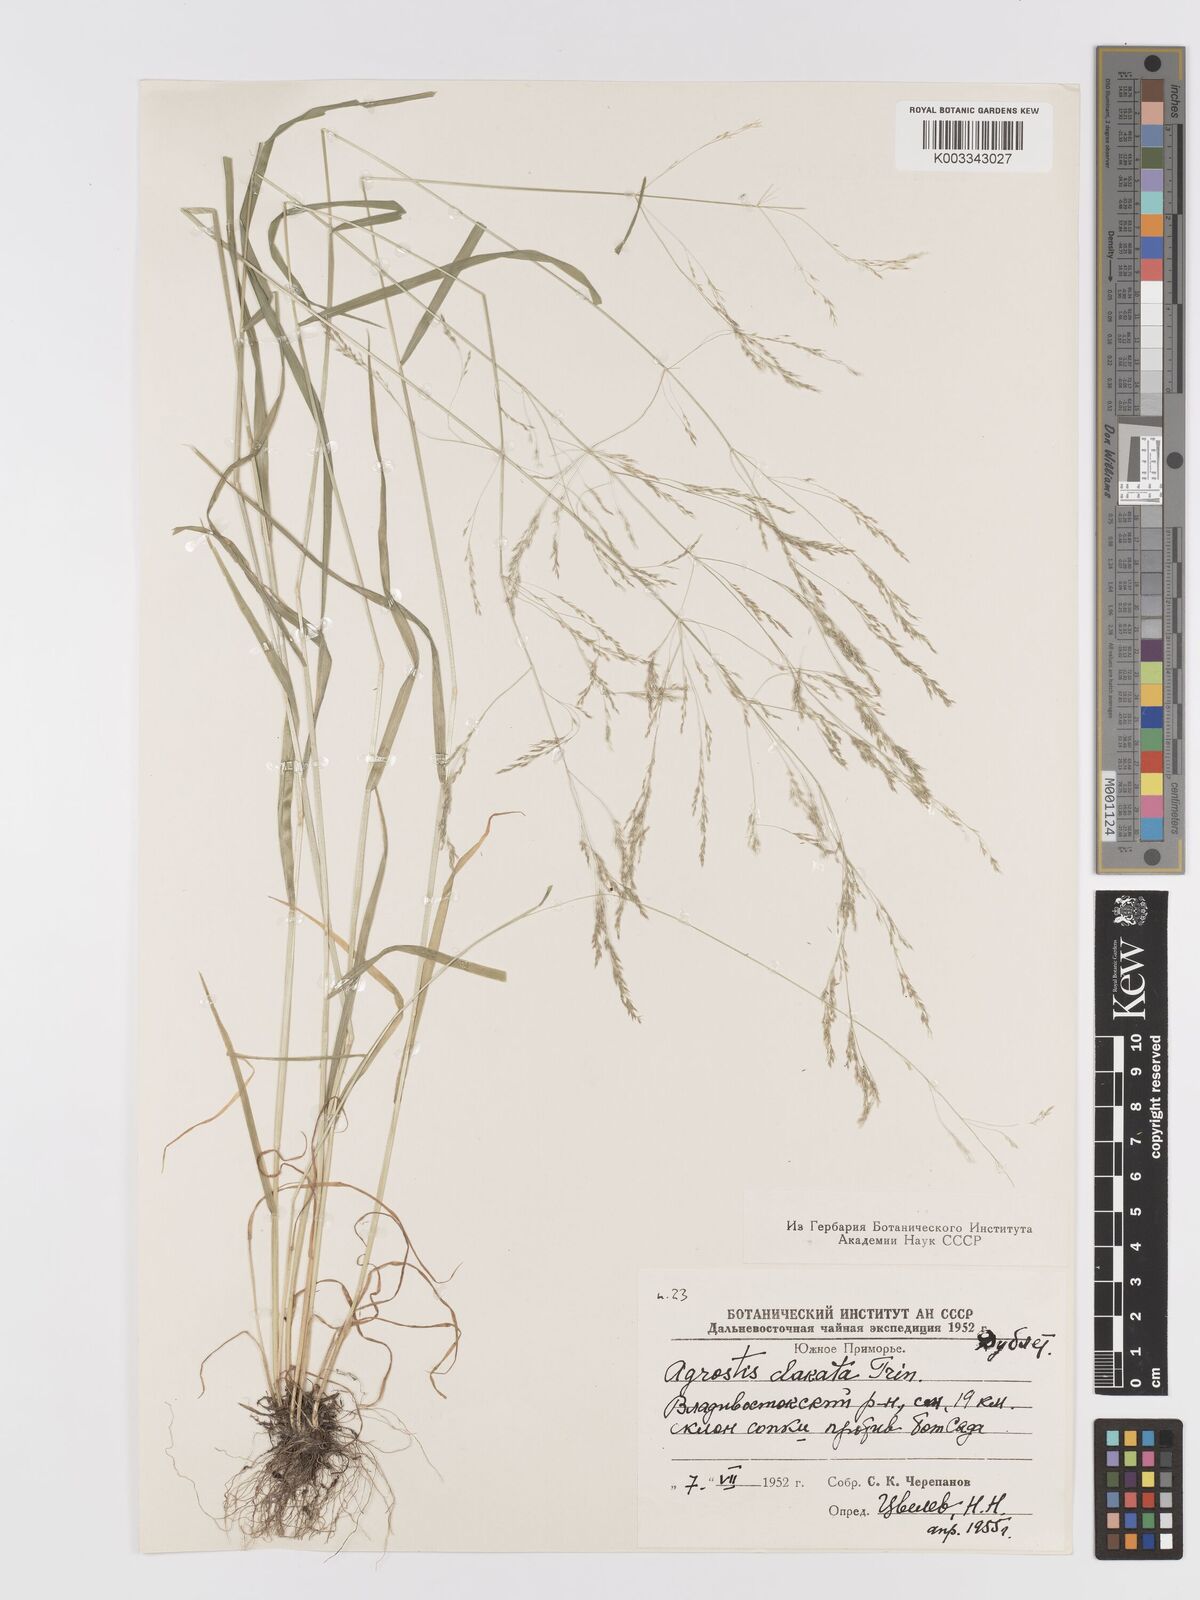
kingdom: Plantae
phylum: Tracheophyta
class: Liliopsida
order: Poales
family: Poaceae
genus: Agrostis
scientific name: Agrostis clavata
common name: Clavate bent
